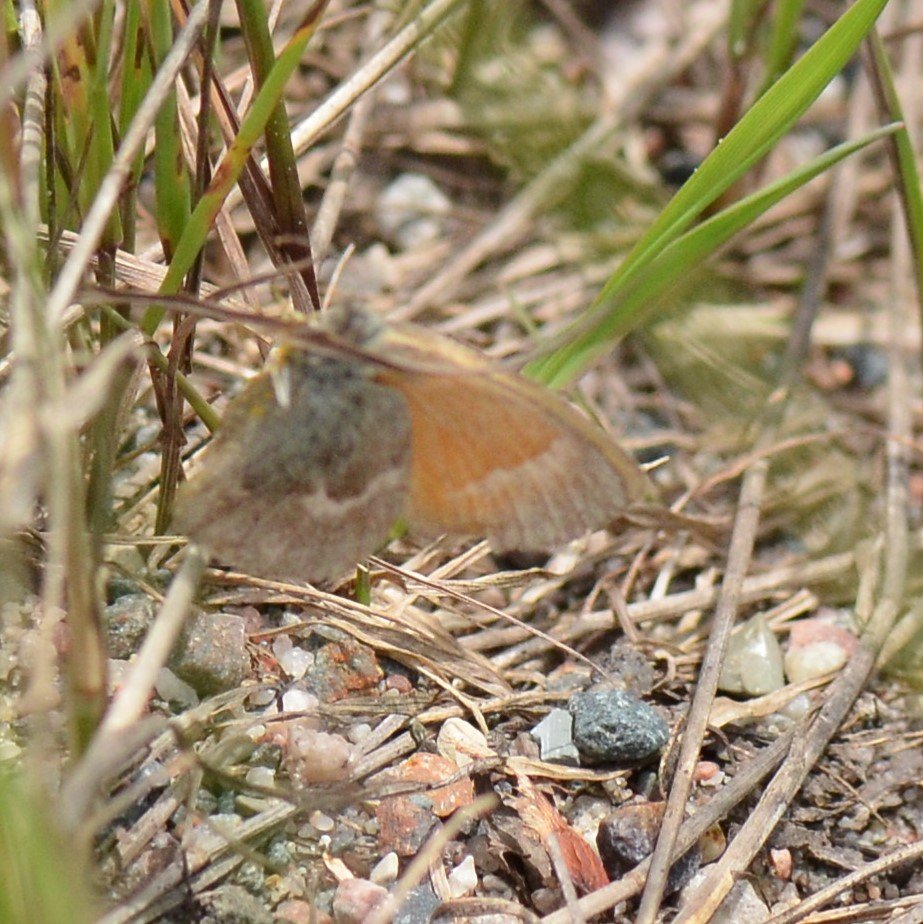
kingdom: Animalia
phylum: Arthropoda
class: Insecta
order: Lepidoptera
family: Nymphalidae
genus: Coenonympha
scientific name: Coenonympha tullia
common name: Large Heath
